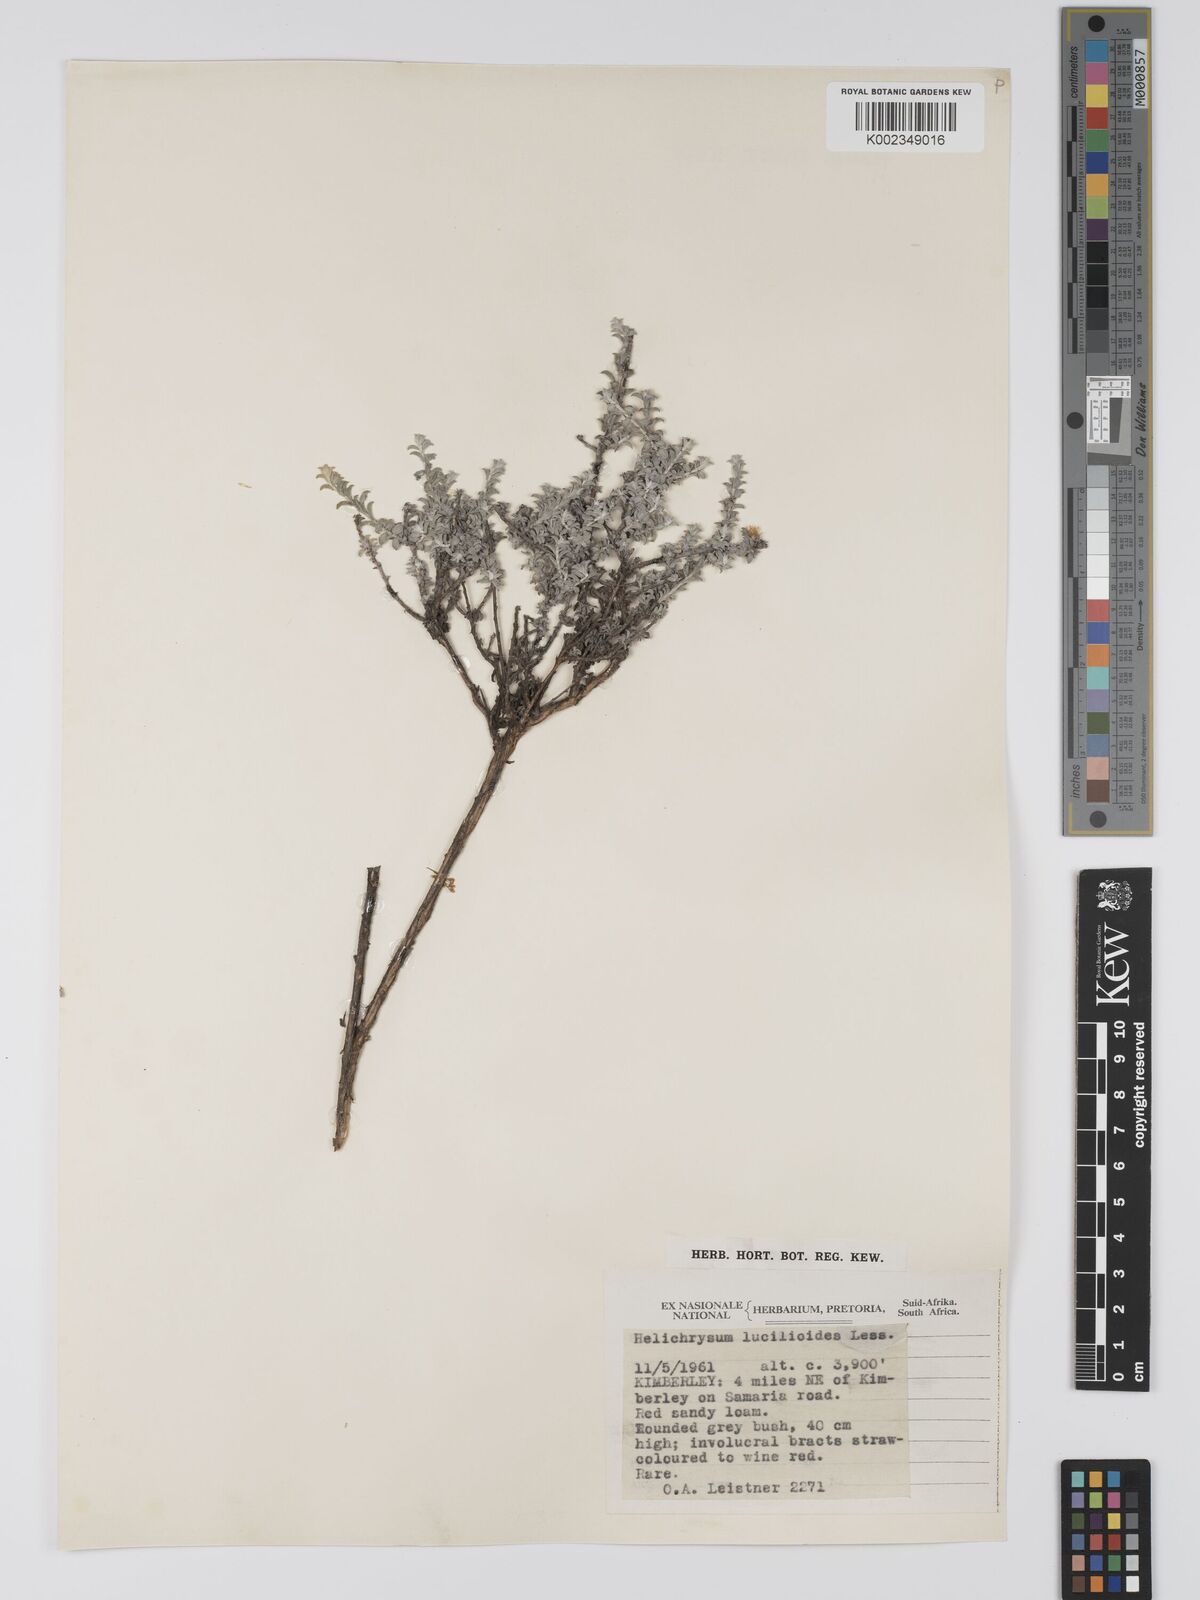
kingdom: Plantae
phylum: Tracheophyta
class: Magnoliopsida
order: Asterales
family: Asteraceae
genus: Helichrysum
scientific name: Helichrysum lucilioides
